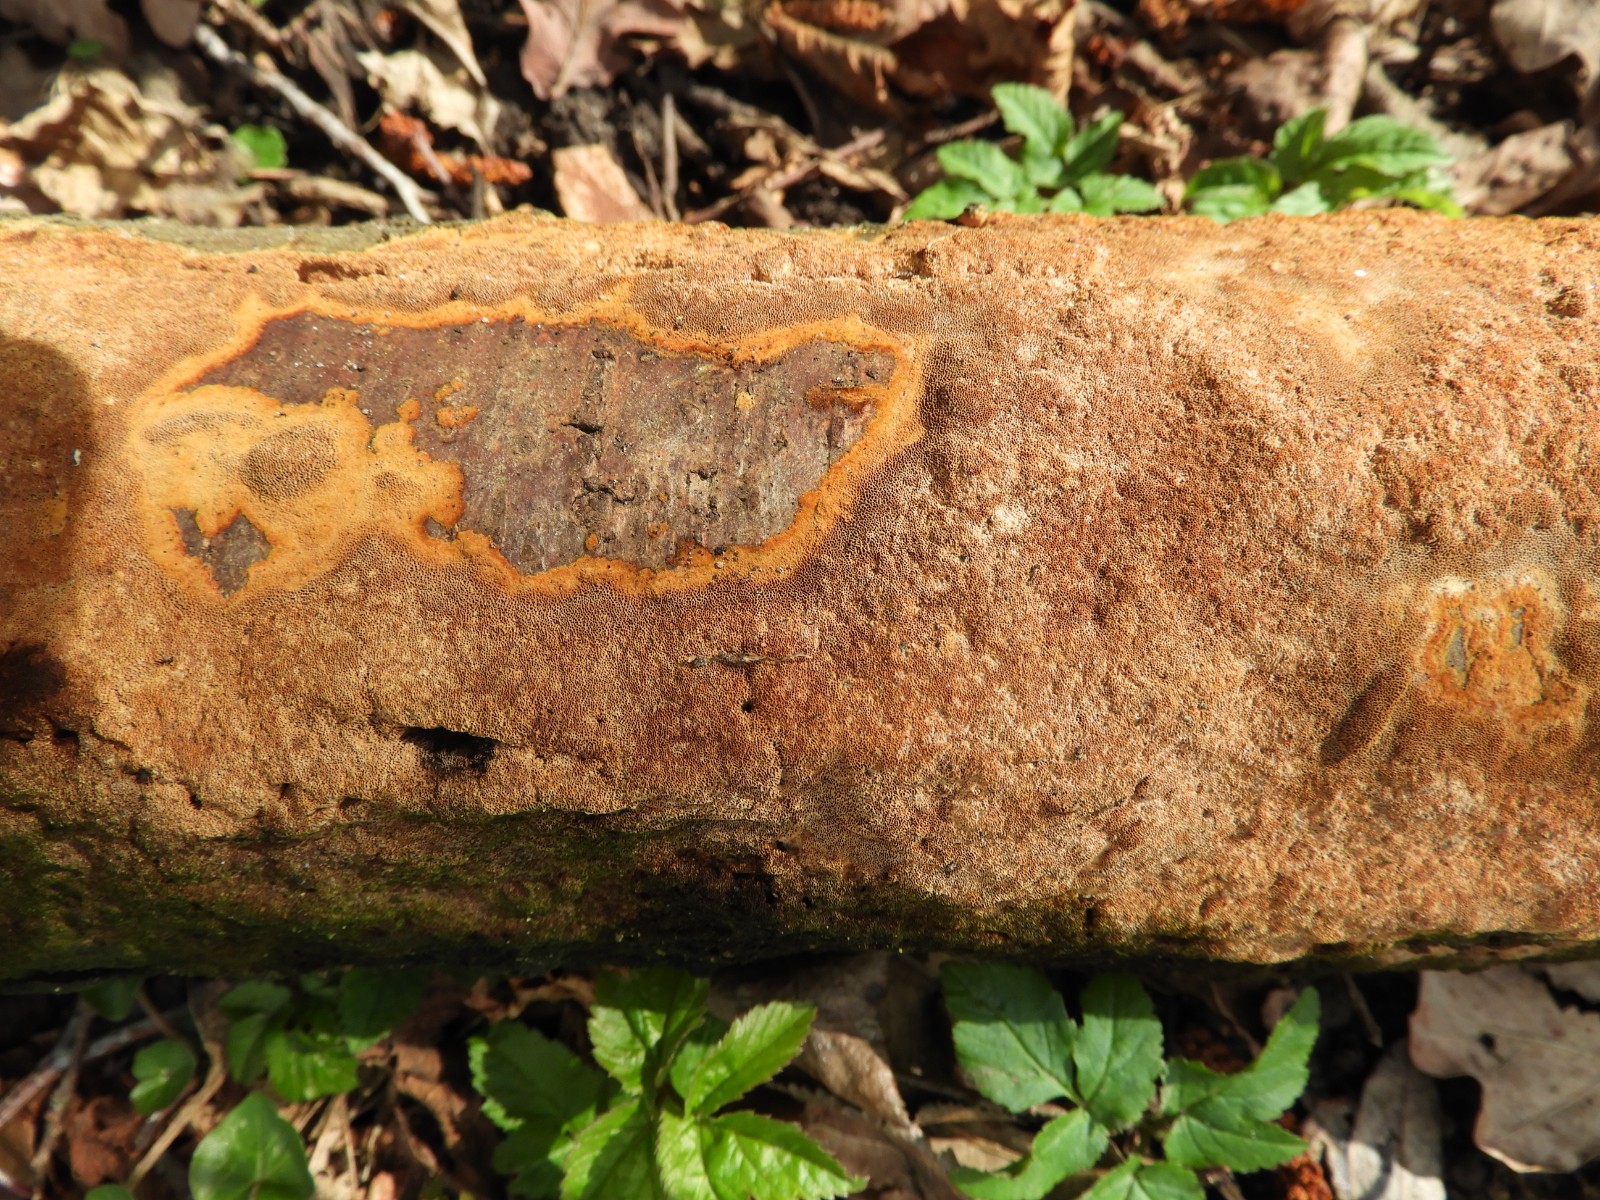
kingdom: Fungi
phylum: Basidiomycota
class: Agaricomycetes
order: Hymenochaetales
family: Hymenochaetaceae
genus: Fuscoporia
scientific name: Fuscoporia ferrea
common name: skorpe-ildporesvamp
